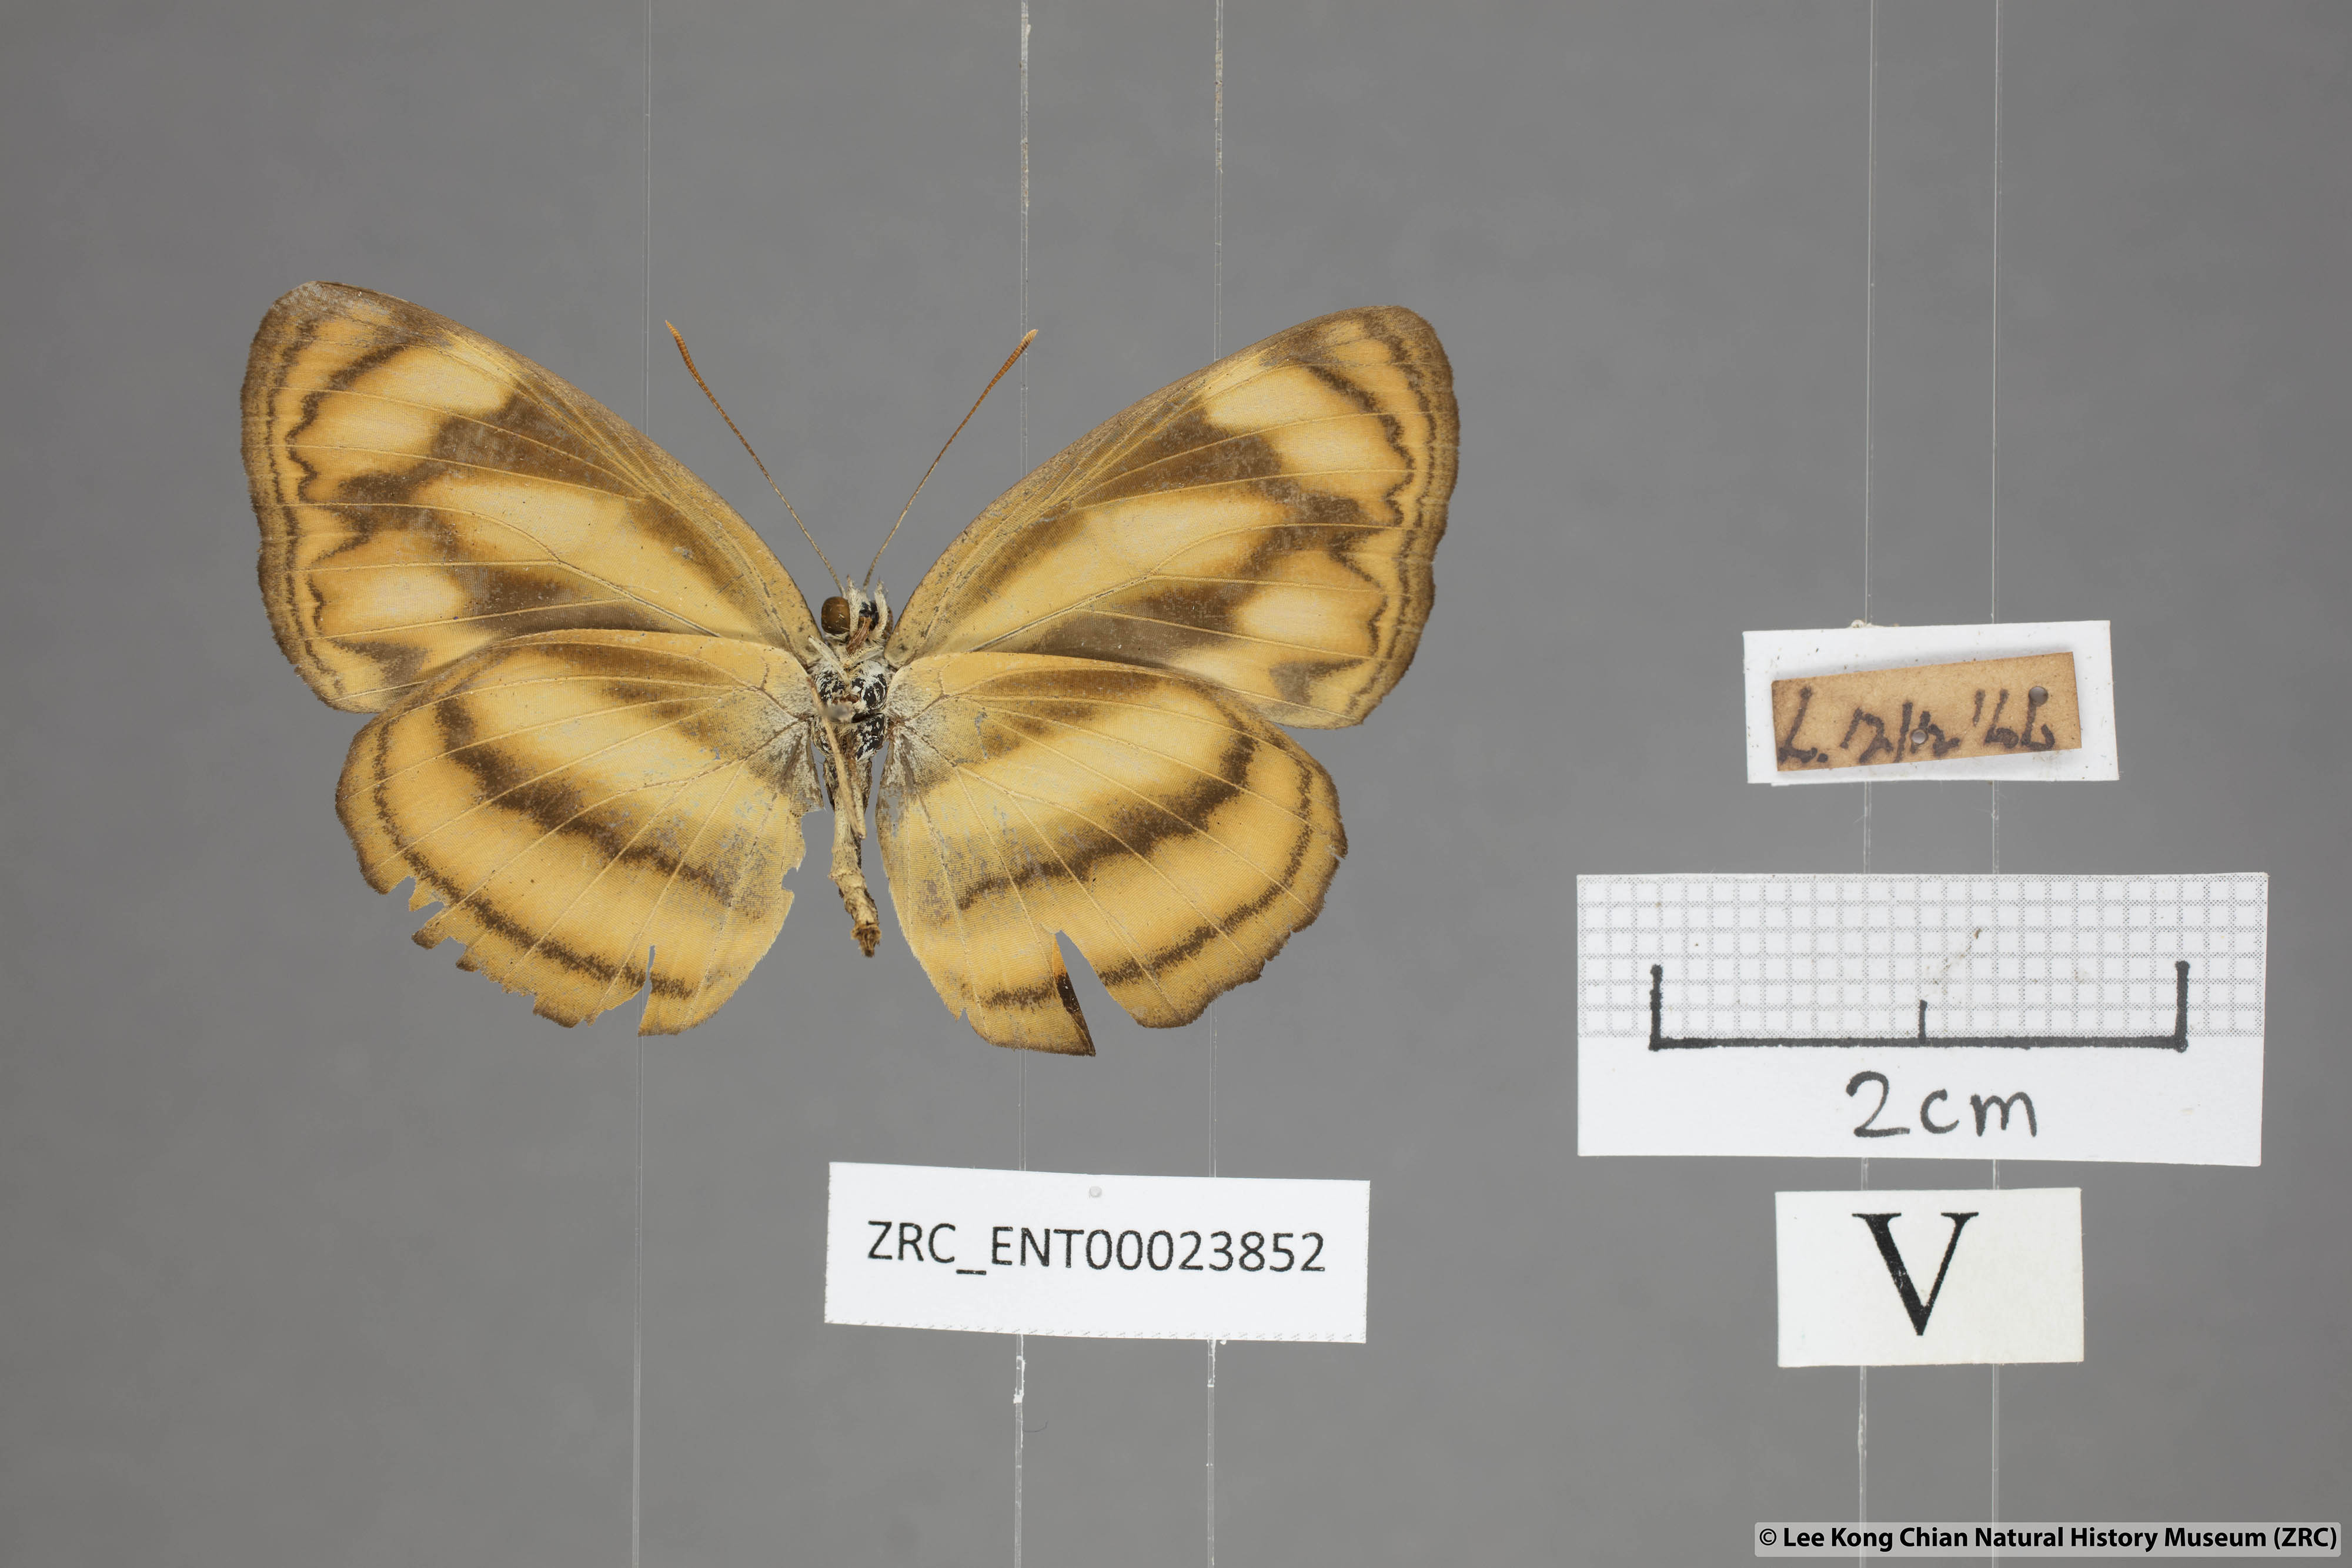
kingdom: Animalia
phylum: Arthropoda
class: Insecta
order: Lepidoptera
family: Nymphalidae
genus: Lasippa
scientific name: Lasippa tiga
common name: Malayan lascar
